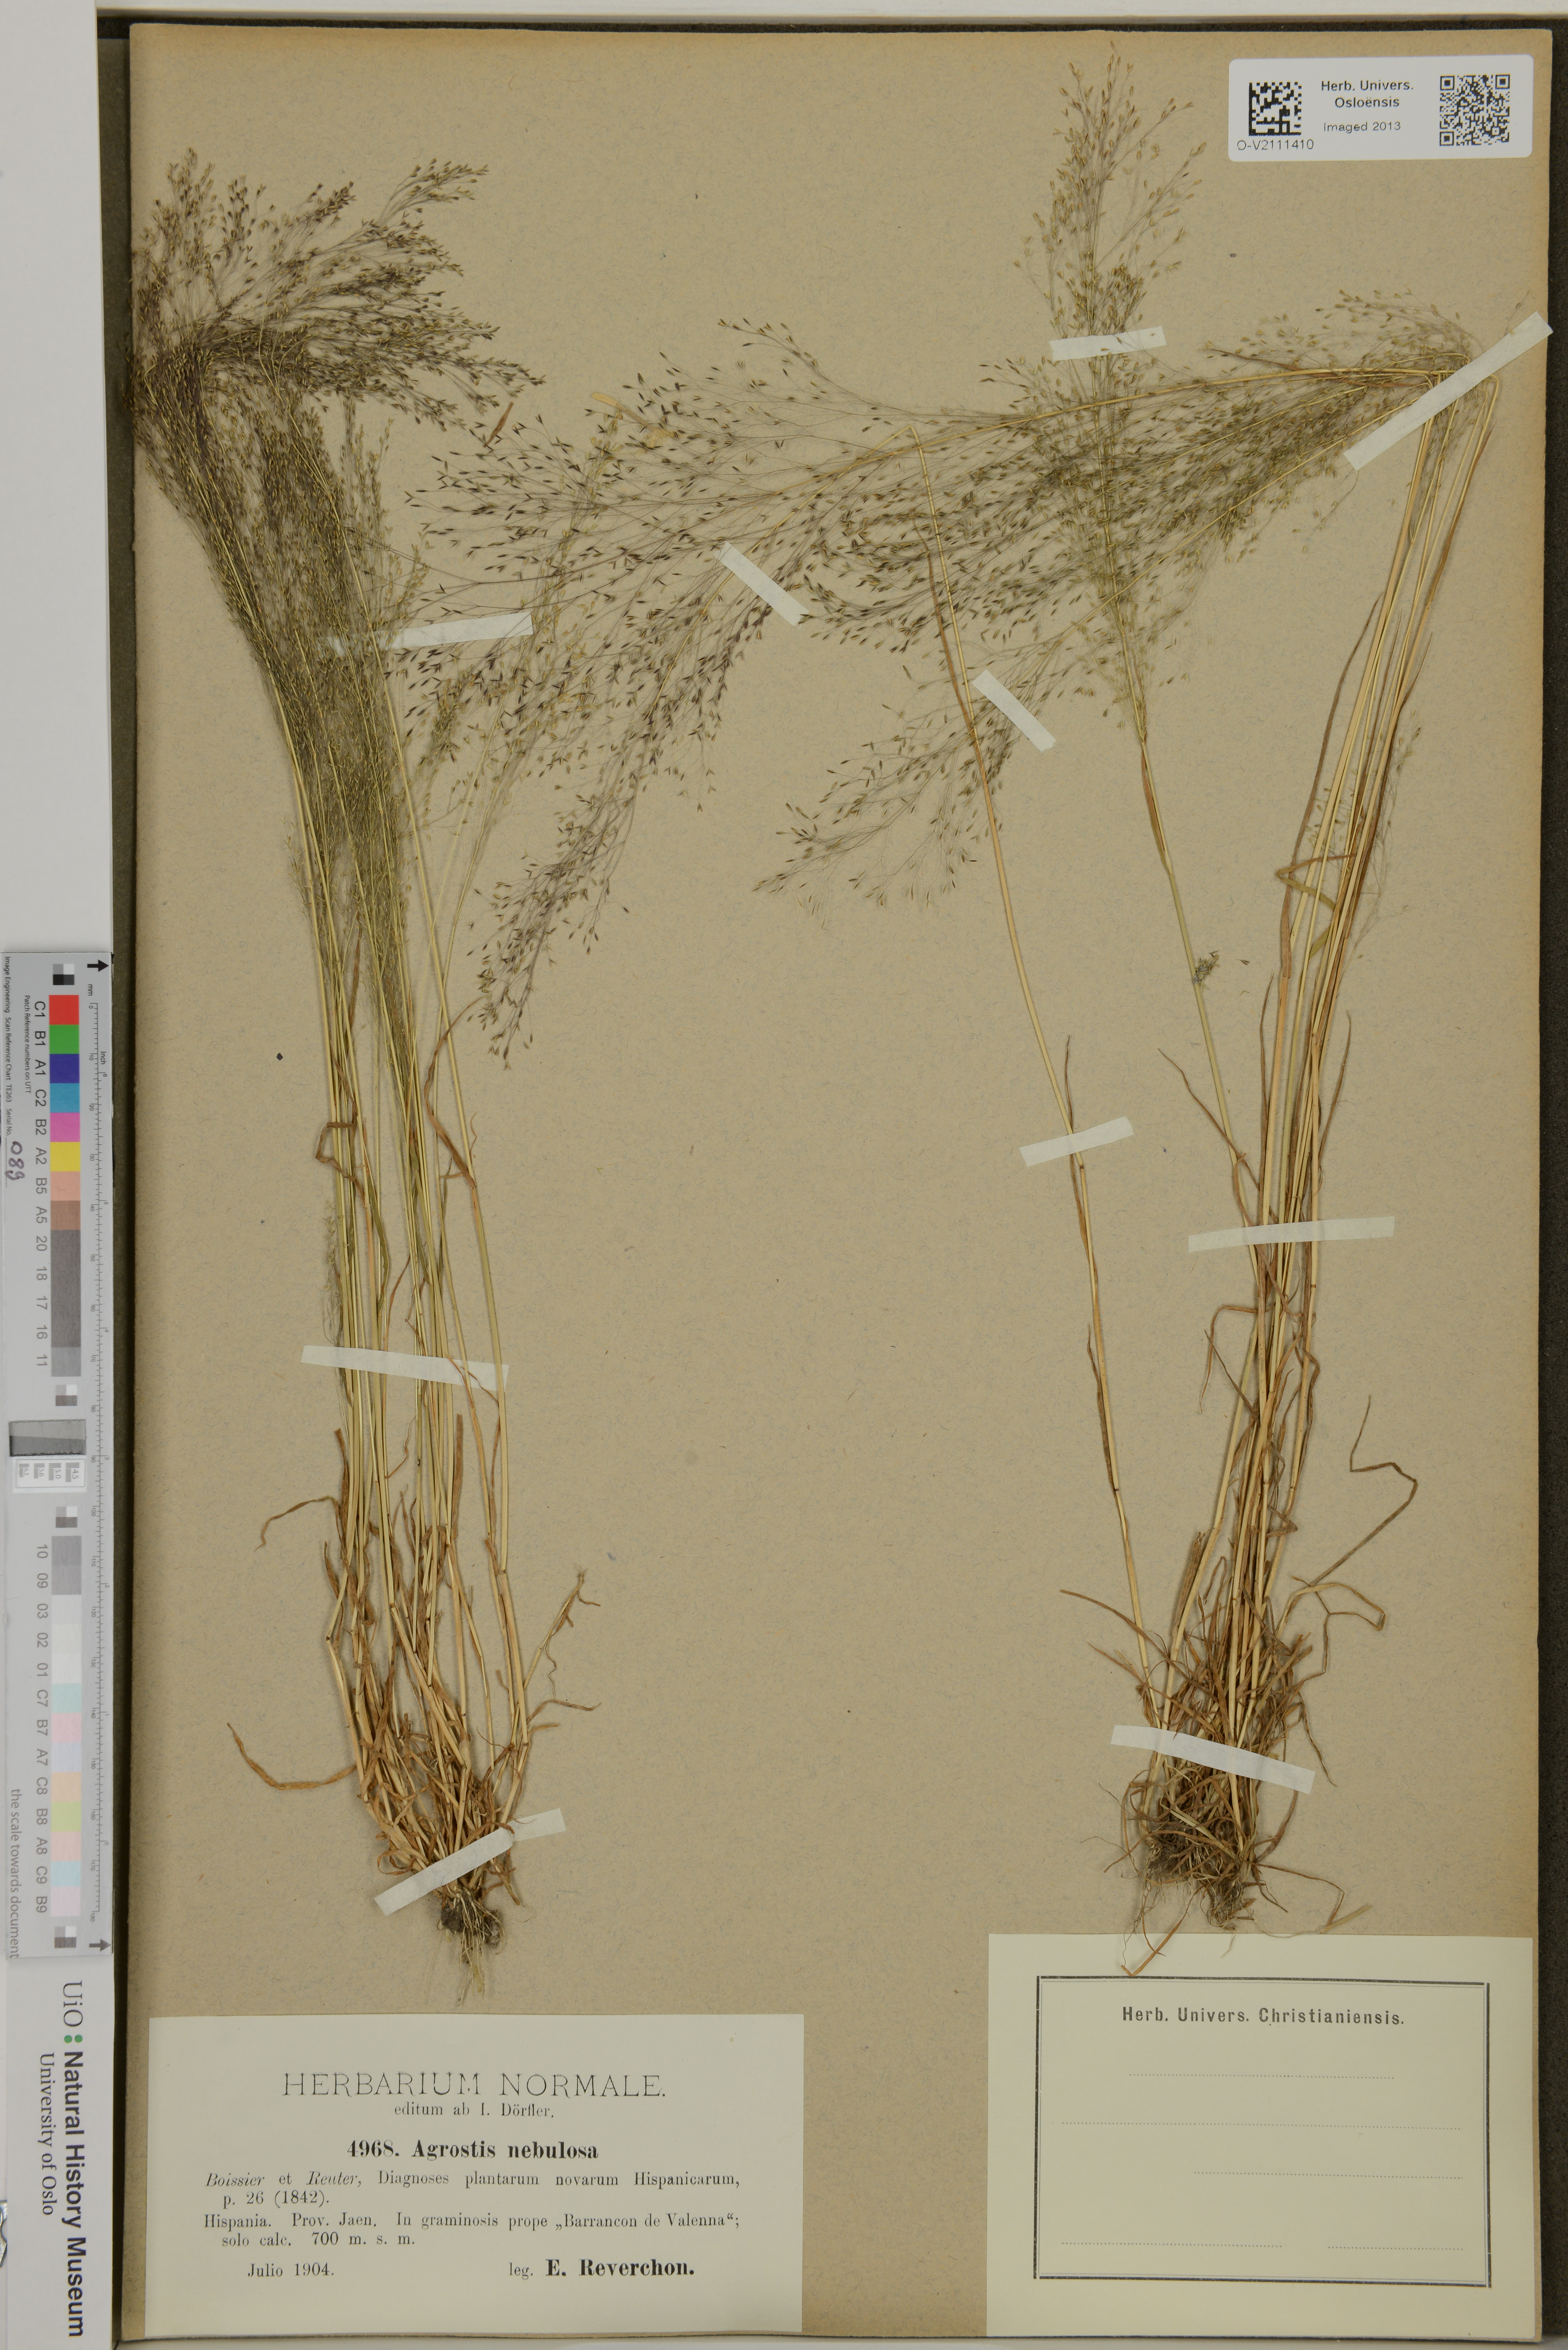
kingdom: Plantae
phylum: Tracheophyta
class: Liliopsida
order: Poales
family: Poaceae
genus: Agrostis
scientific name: Agrostis nebulosa
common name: Cloud grass
